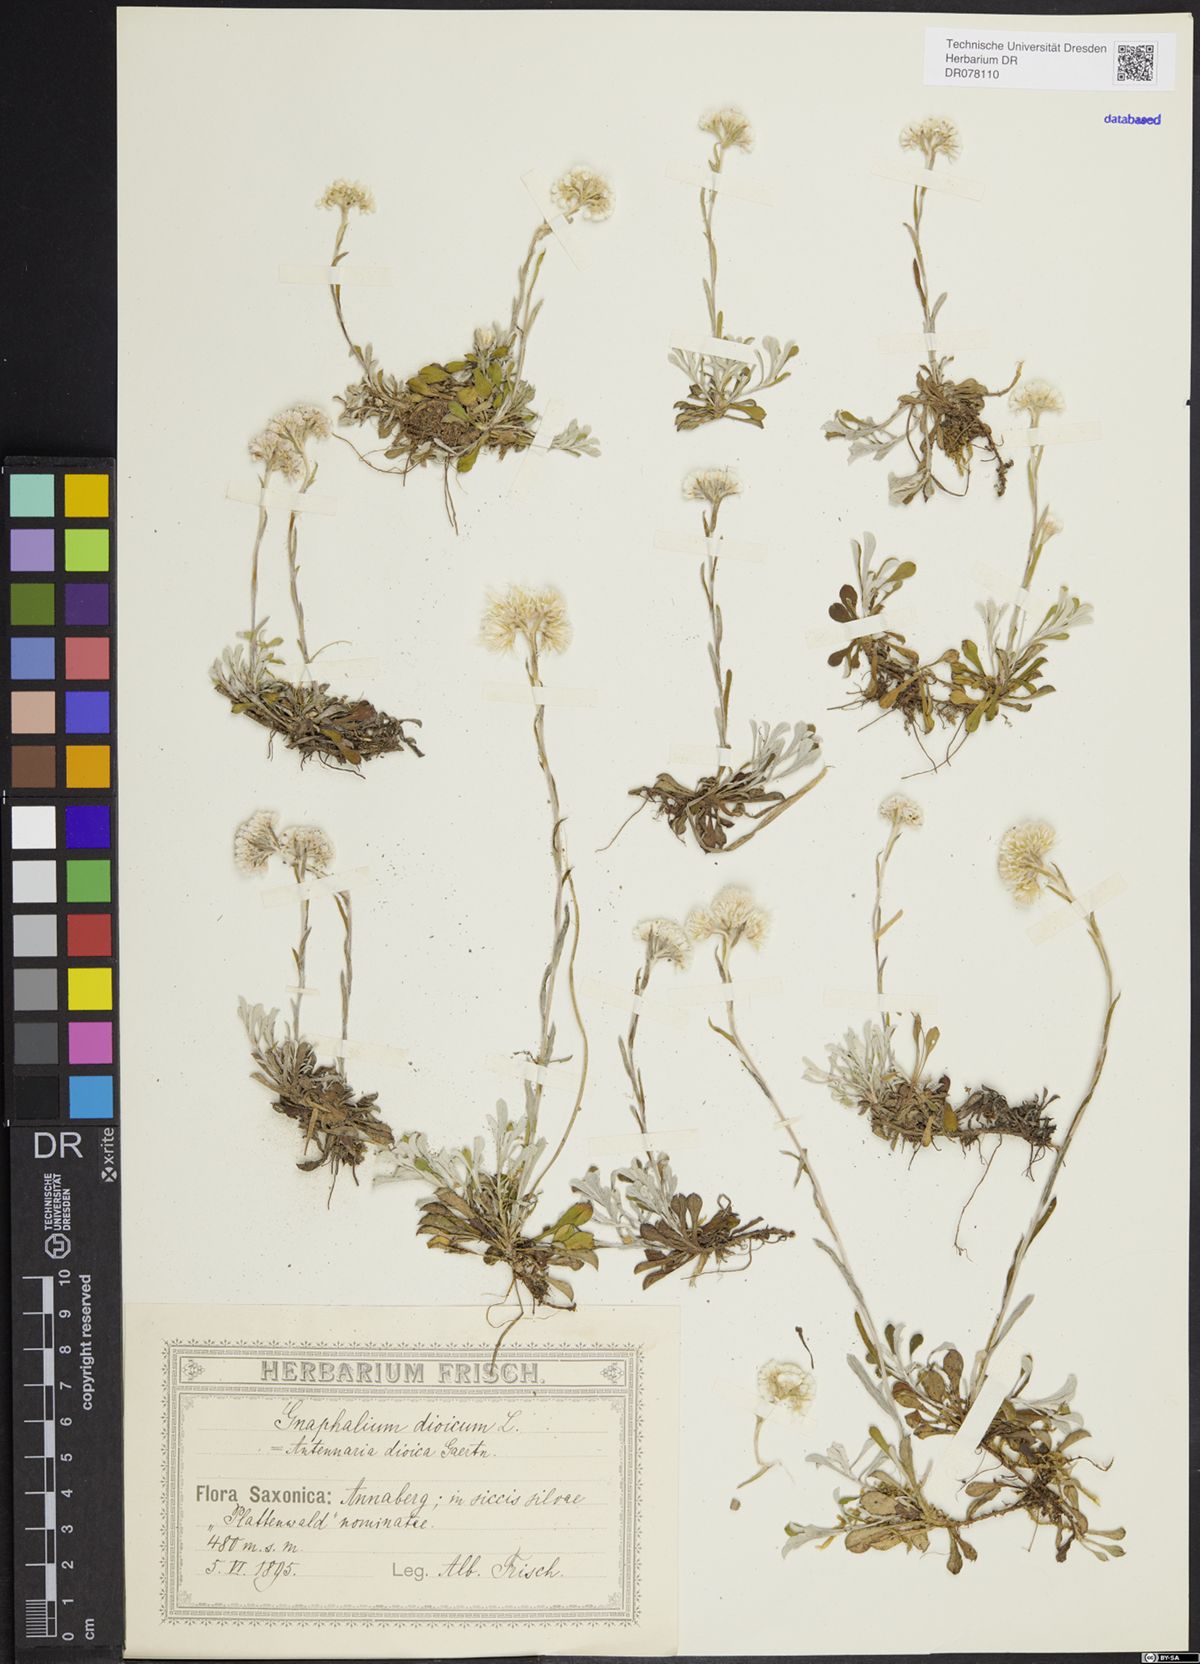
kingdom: Plantae
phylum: Tracheophyta
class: Magnoliopsida
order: Asterales
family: Asteraceae
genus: Antennaria
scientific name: Antennaria dioica
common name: Mountain everlasting
